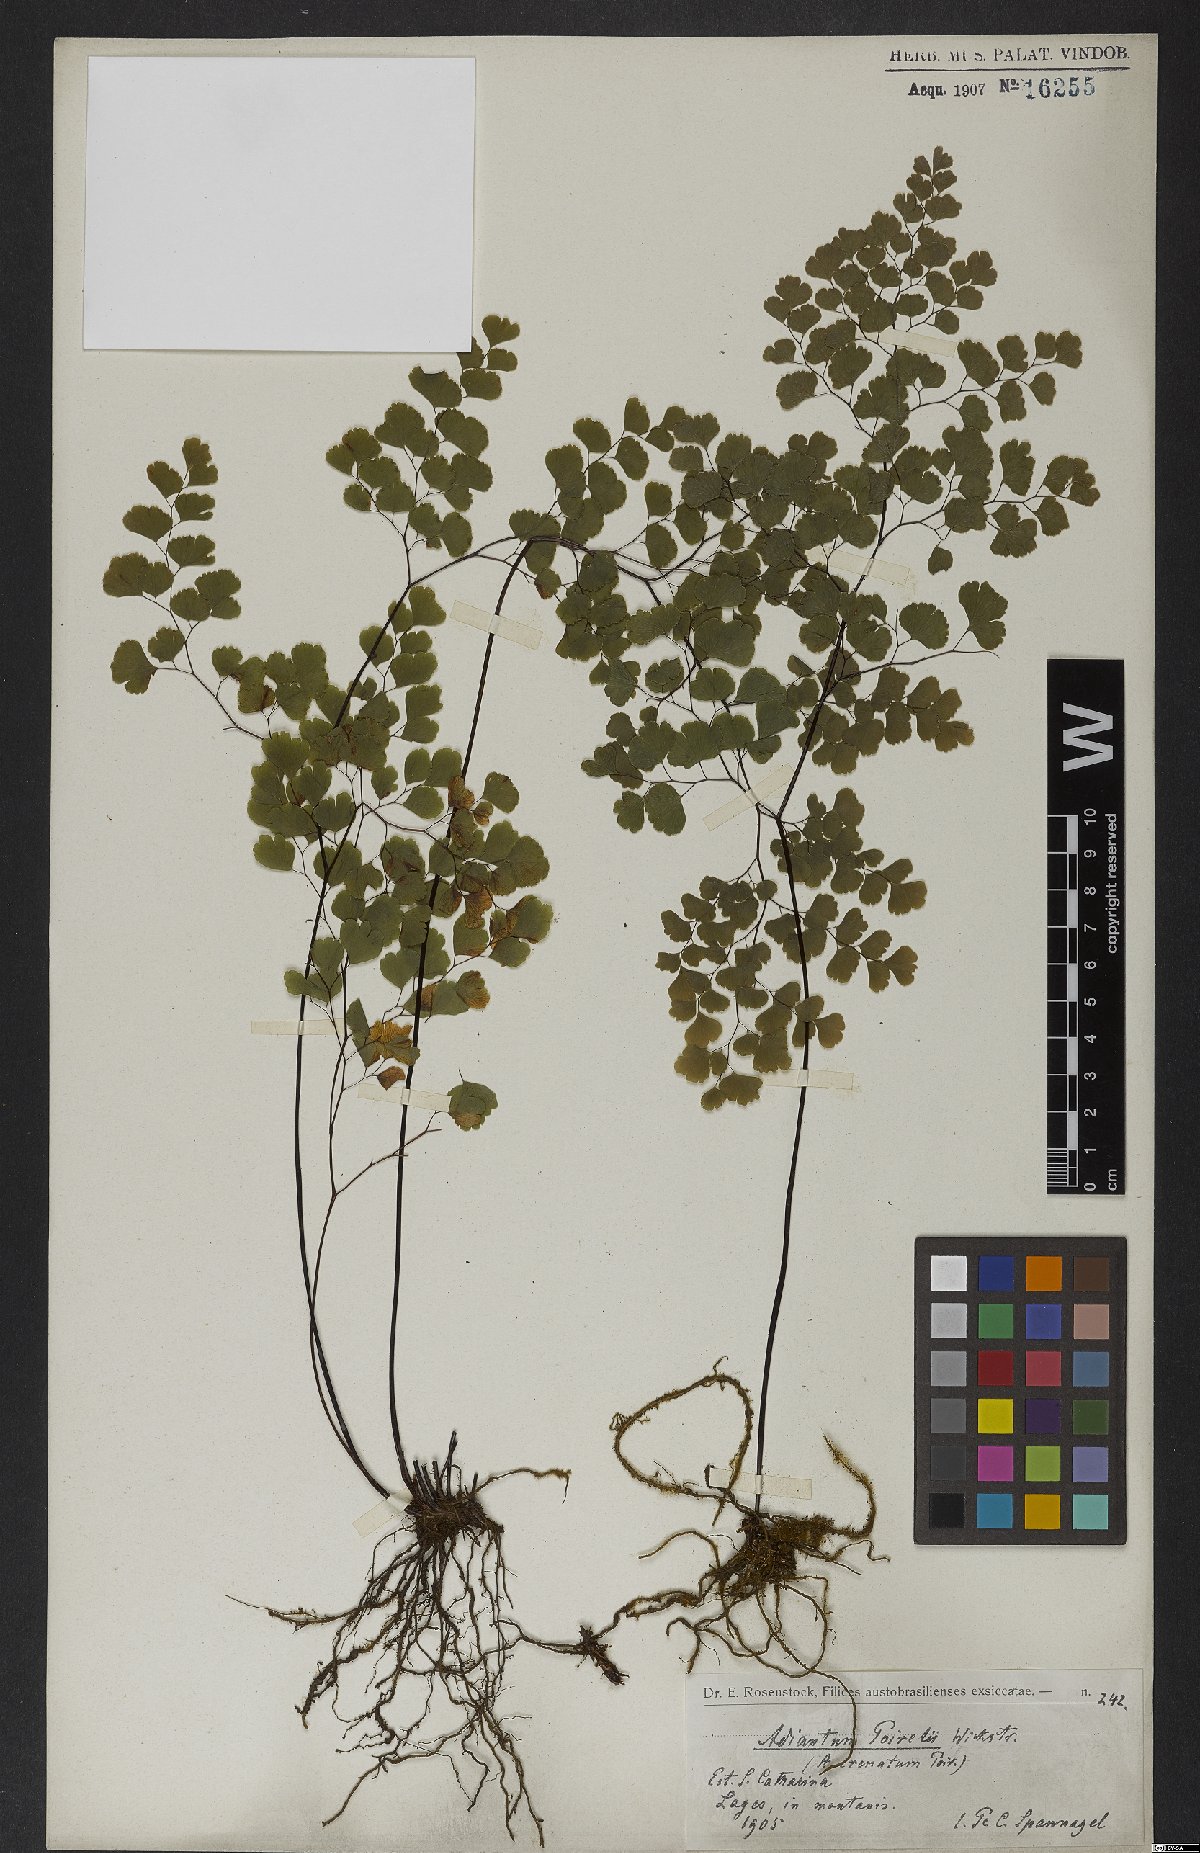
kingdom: Plantae
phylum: Tracheophyta
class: Polypodiopsida
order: Polypodiales
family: Pteridaceae
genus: Adiantum
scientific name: Adiantum poiretii
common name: Mexican maidenhair
